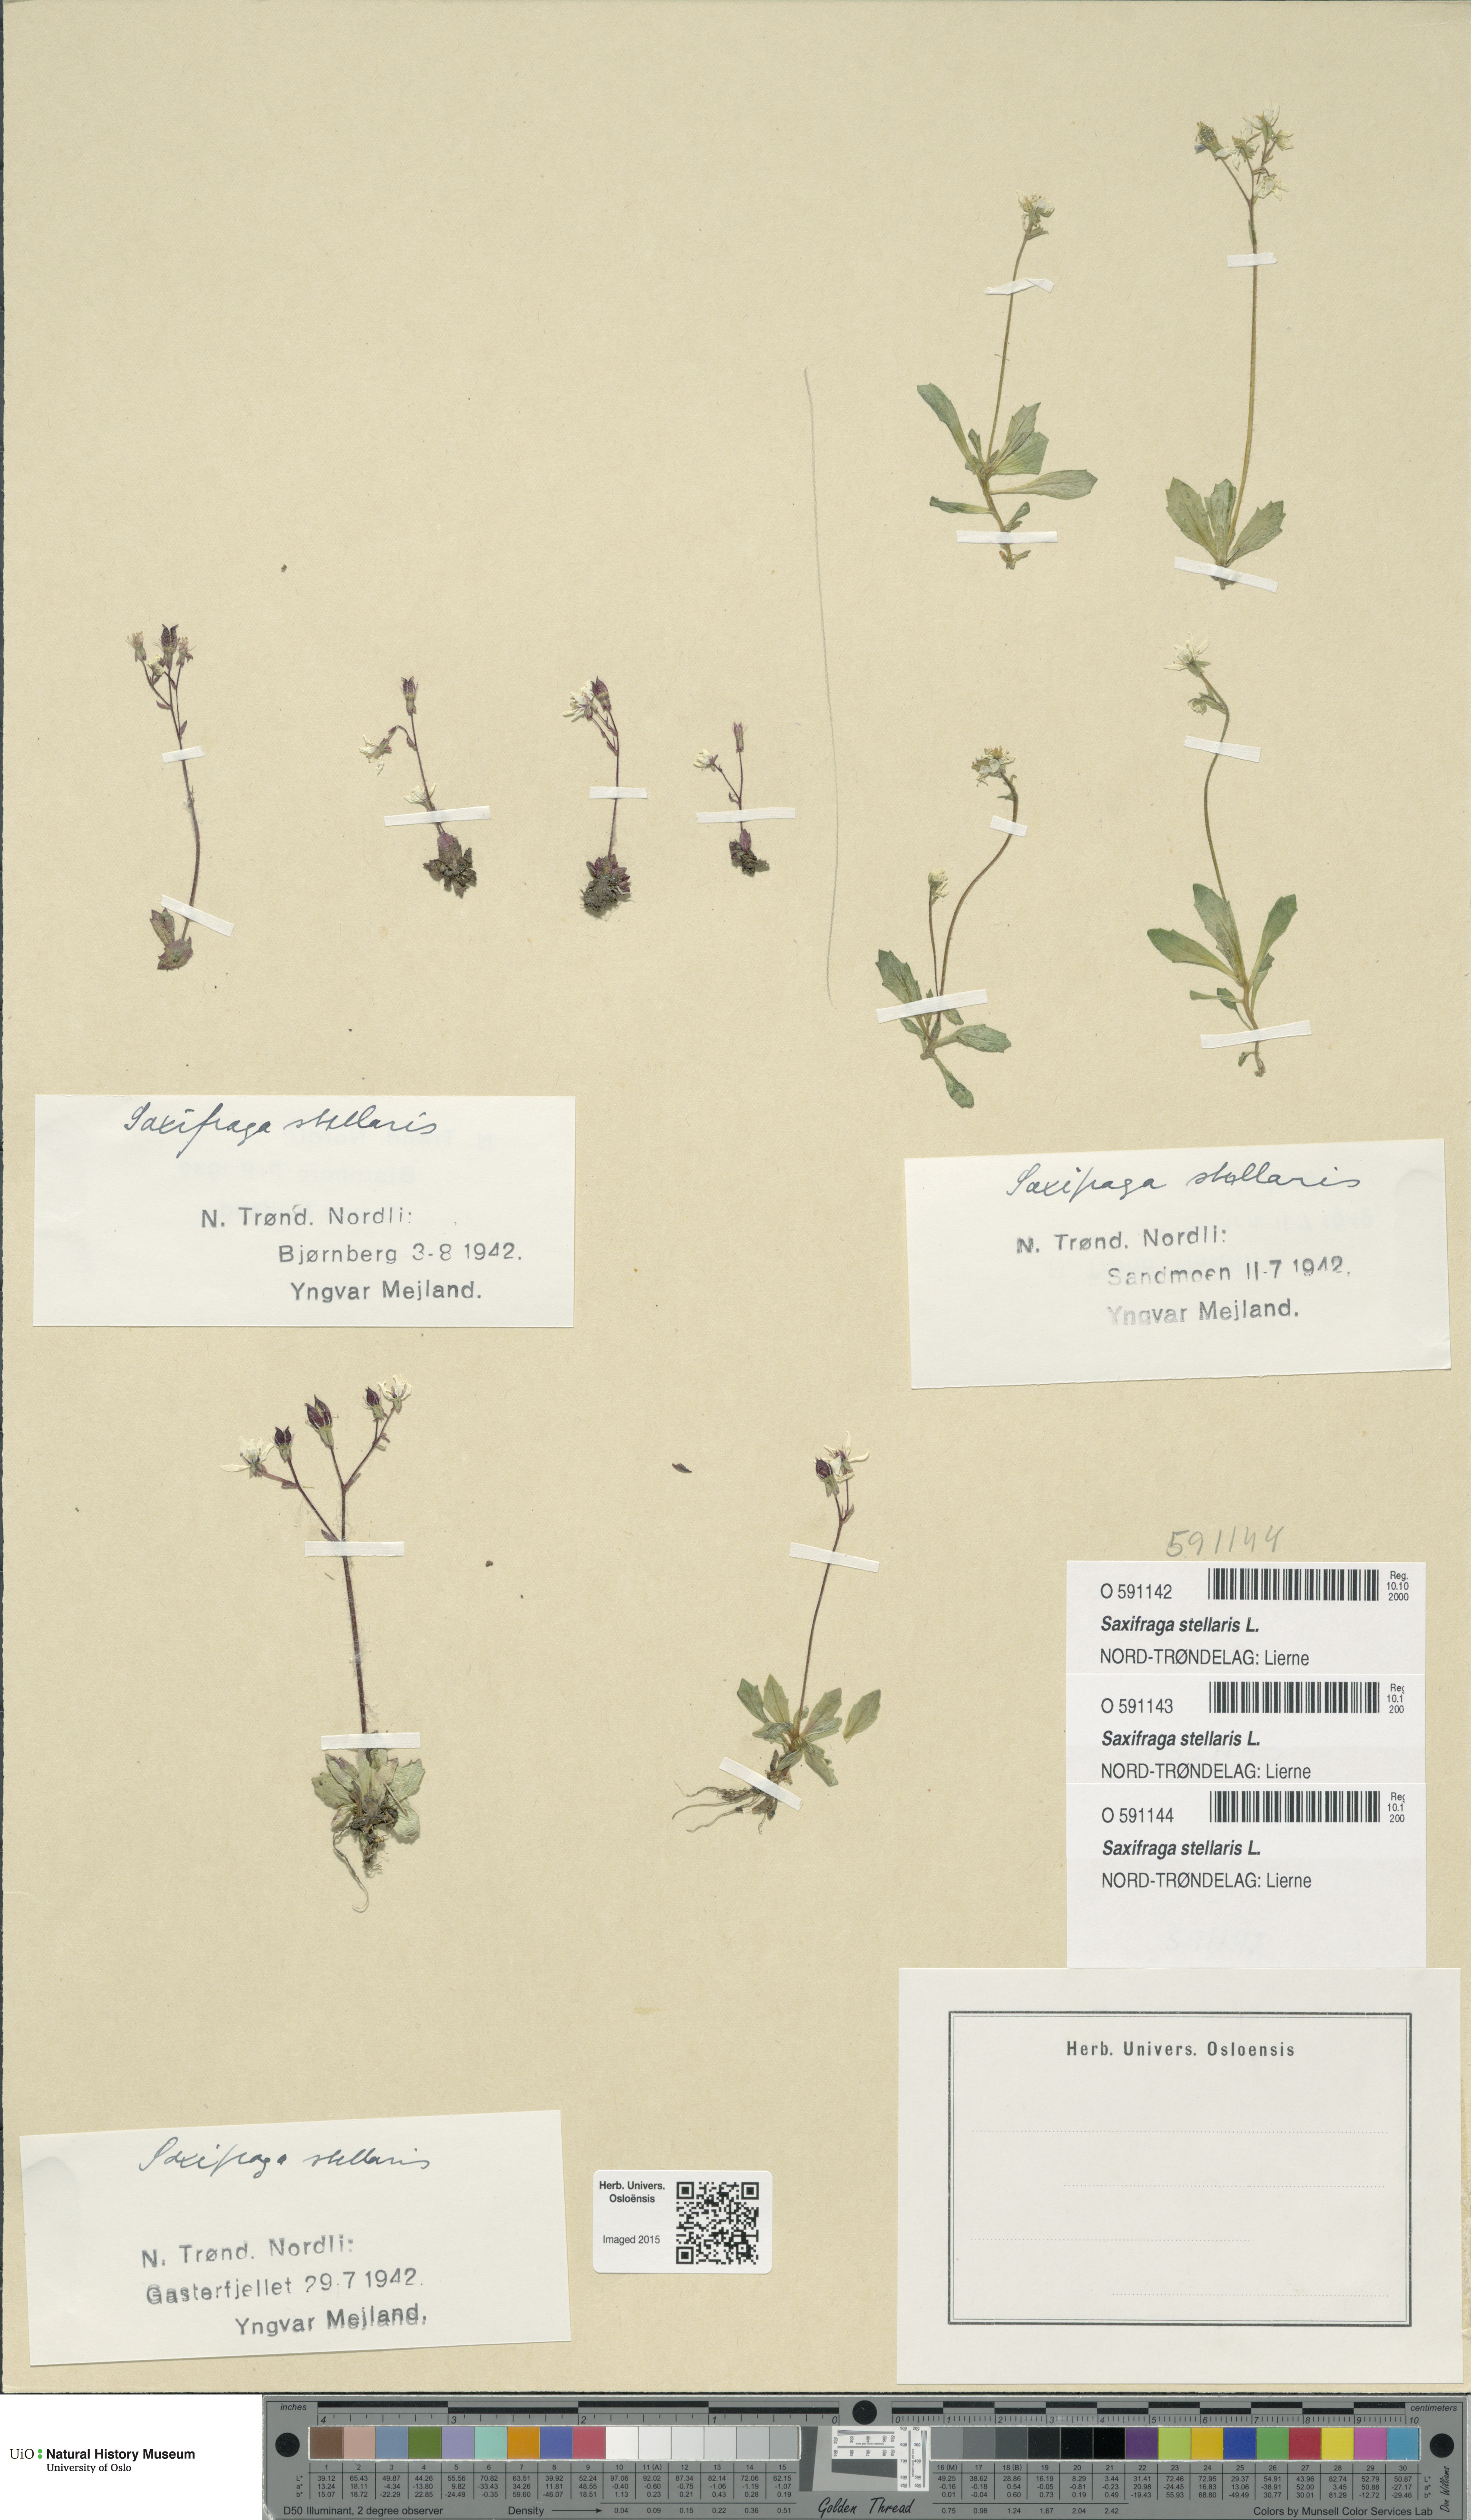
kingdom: Plantae
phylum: Tracheophyta
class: Magnoliopsida
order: Saxifragales
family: Saxifragaceae
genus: Micranthes
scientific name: Micranthes stellaris
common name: Starry saxifrage
